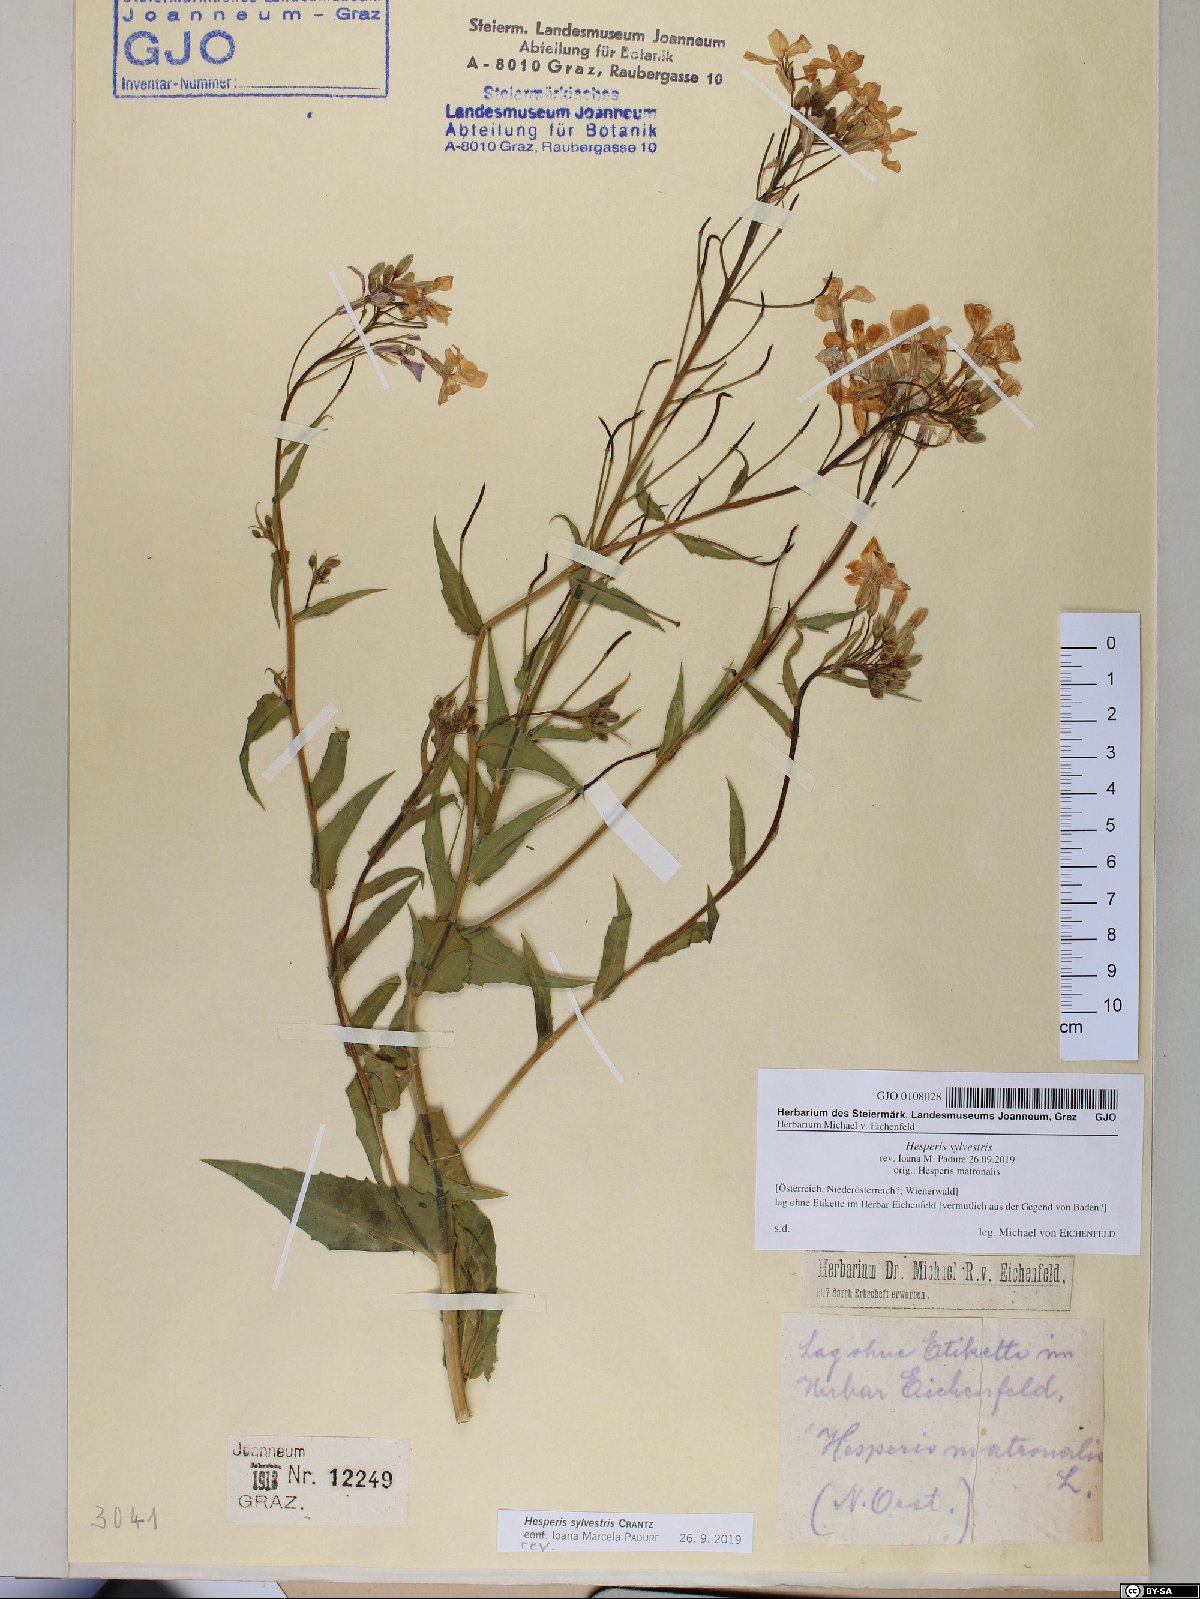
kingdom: Plantae
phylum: Tracheophyta
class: Magnoliopsida
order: Brassicales
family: Brassicaceae
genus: Hesperis
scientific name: Hesperis sylvestris
